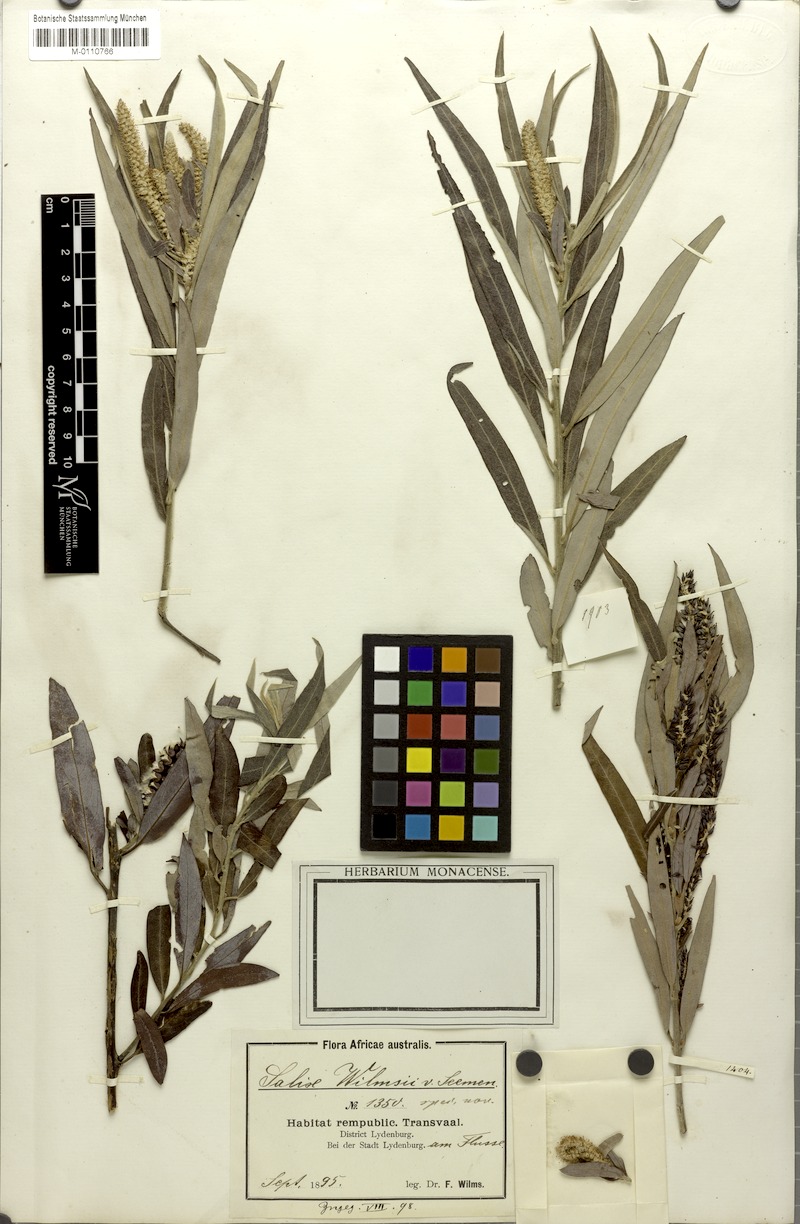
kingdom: Plantae
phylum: Tracheophyta
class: Magnoliopsida
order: Malpighiales
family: Salicaceae
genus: Salix
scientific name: Salix mucronata
